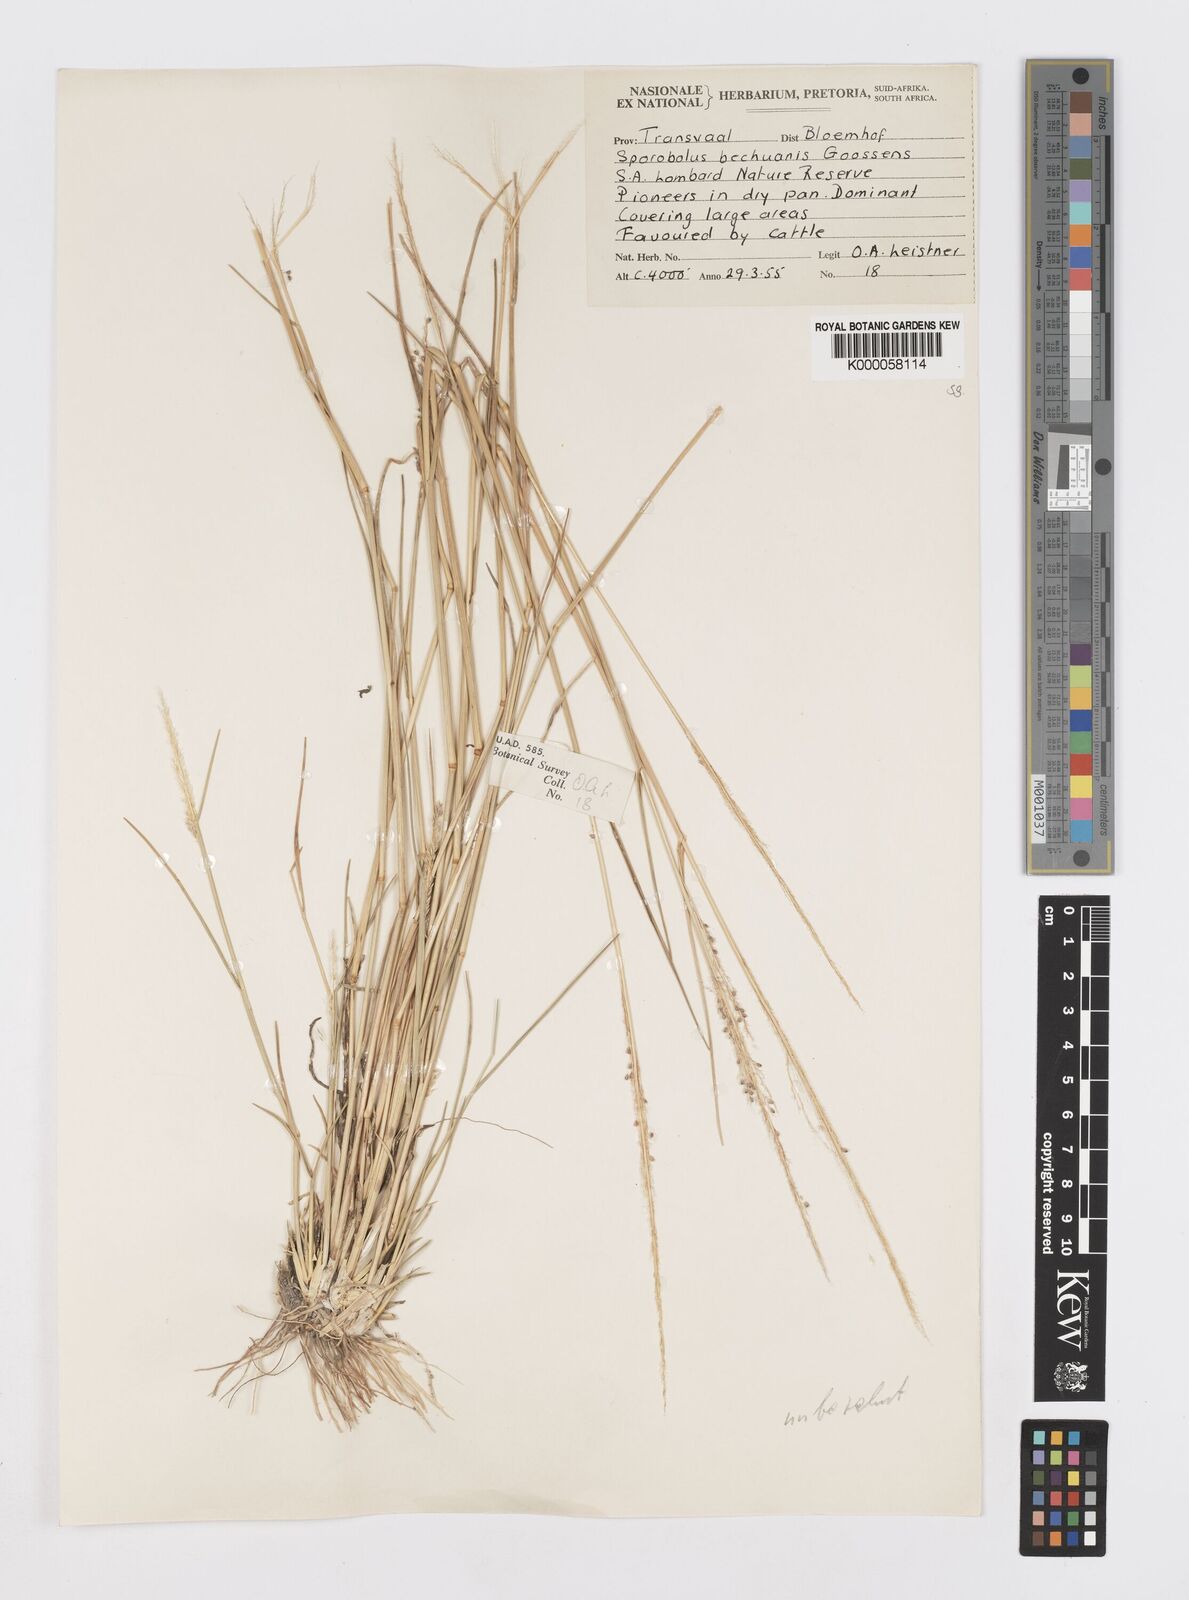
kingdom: Plantae
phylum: Tracheophyta
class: Liliopsida
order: Poales
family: Poaceae
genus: Sporobolus
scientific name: Sporobolus bechuanicus
